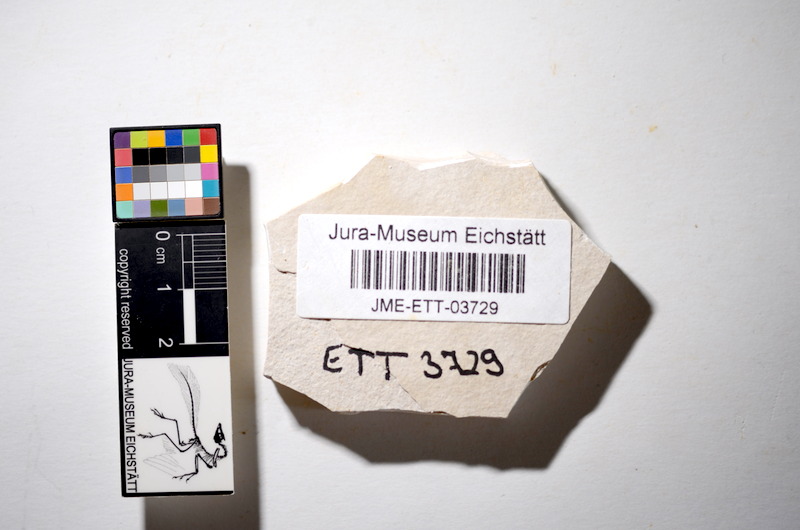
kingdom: Animalia
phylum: Chordata
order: Salmoniformes
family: Orthogonikleithridae
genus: Orthogonikleithrus
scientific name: Orthogonikleithrus hoelli
